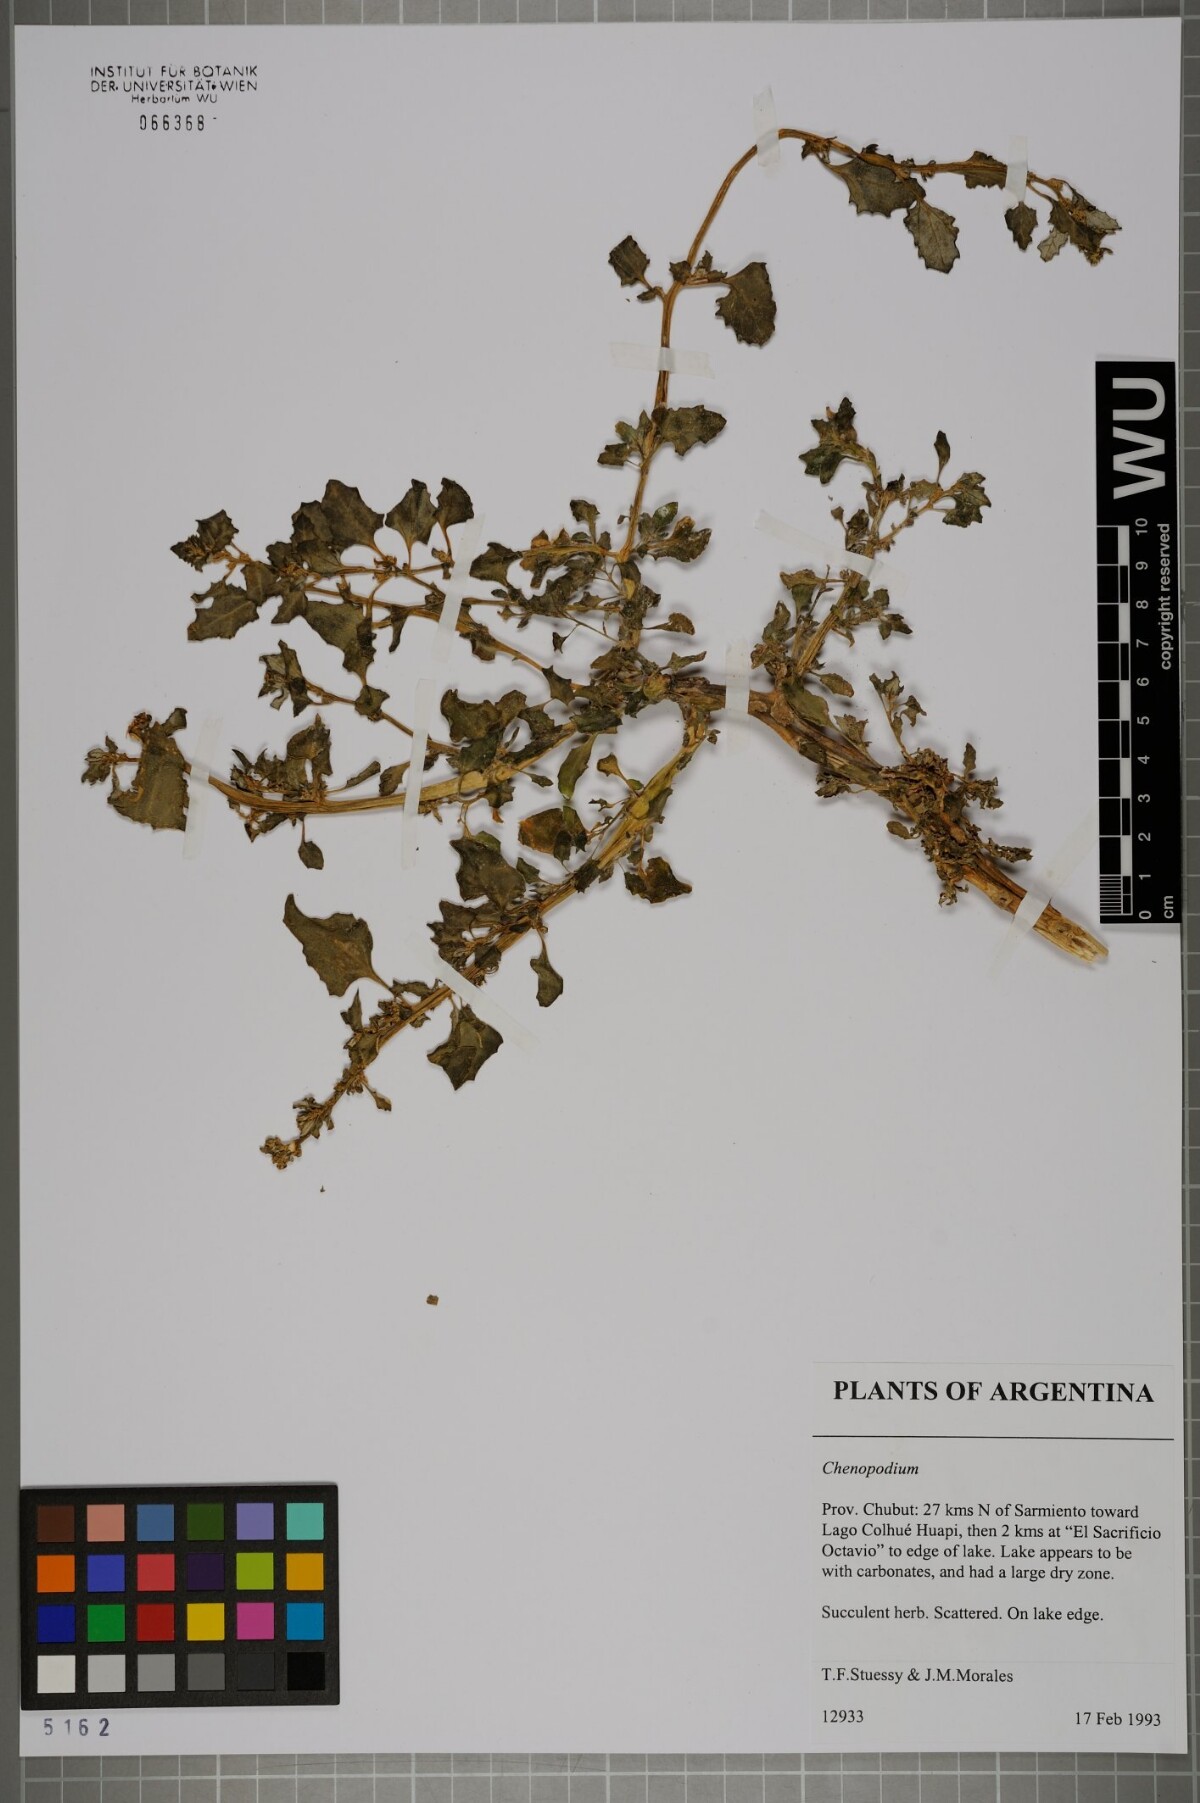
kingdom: Plantae
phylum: Tracheophyta
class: Magnoliopsida
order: Caryophyllales
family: Amaranthaceae
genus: Chenopodium
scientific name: Chenopodium
